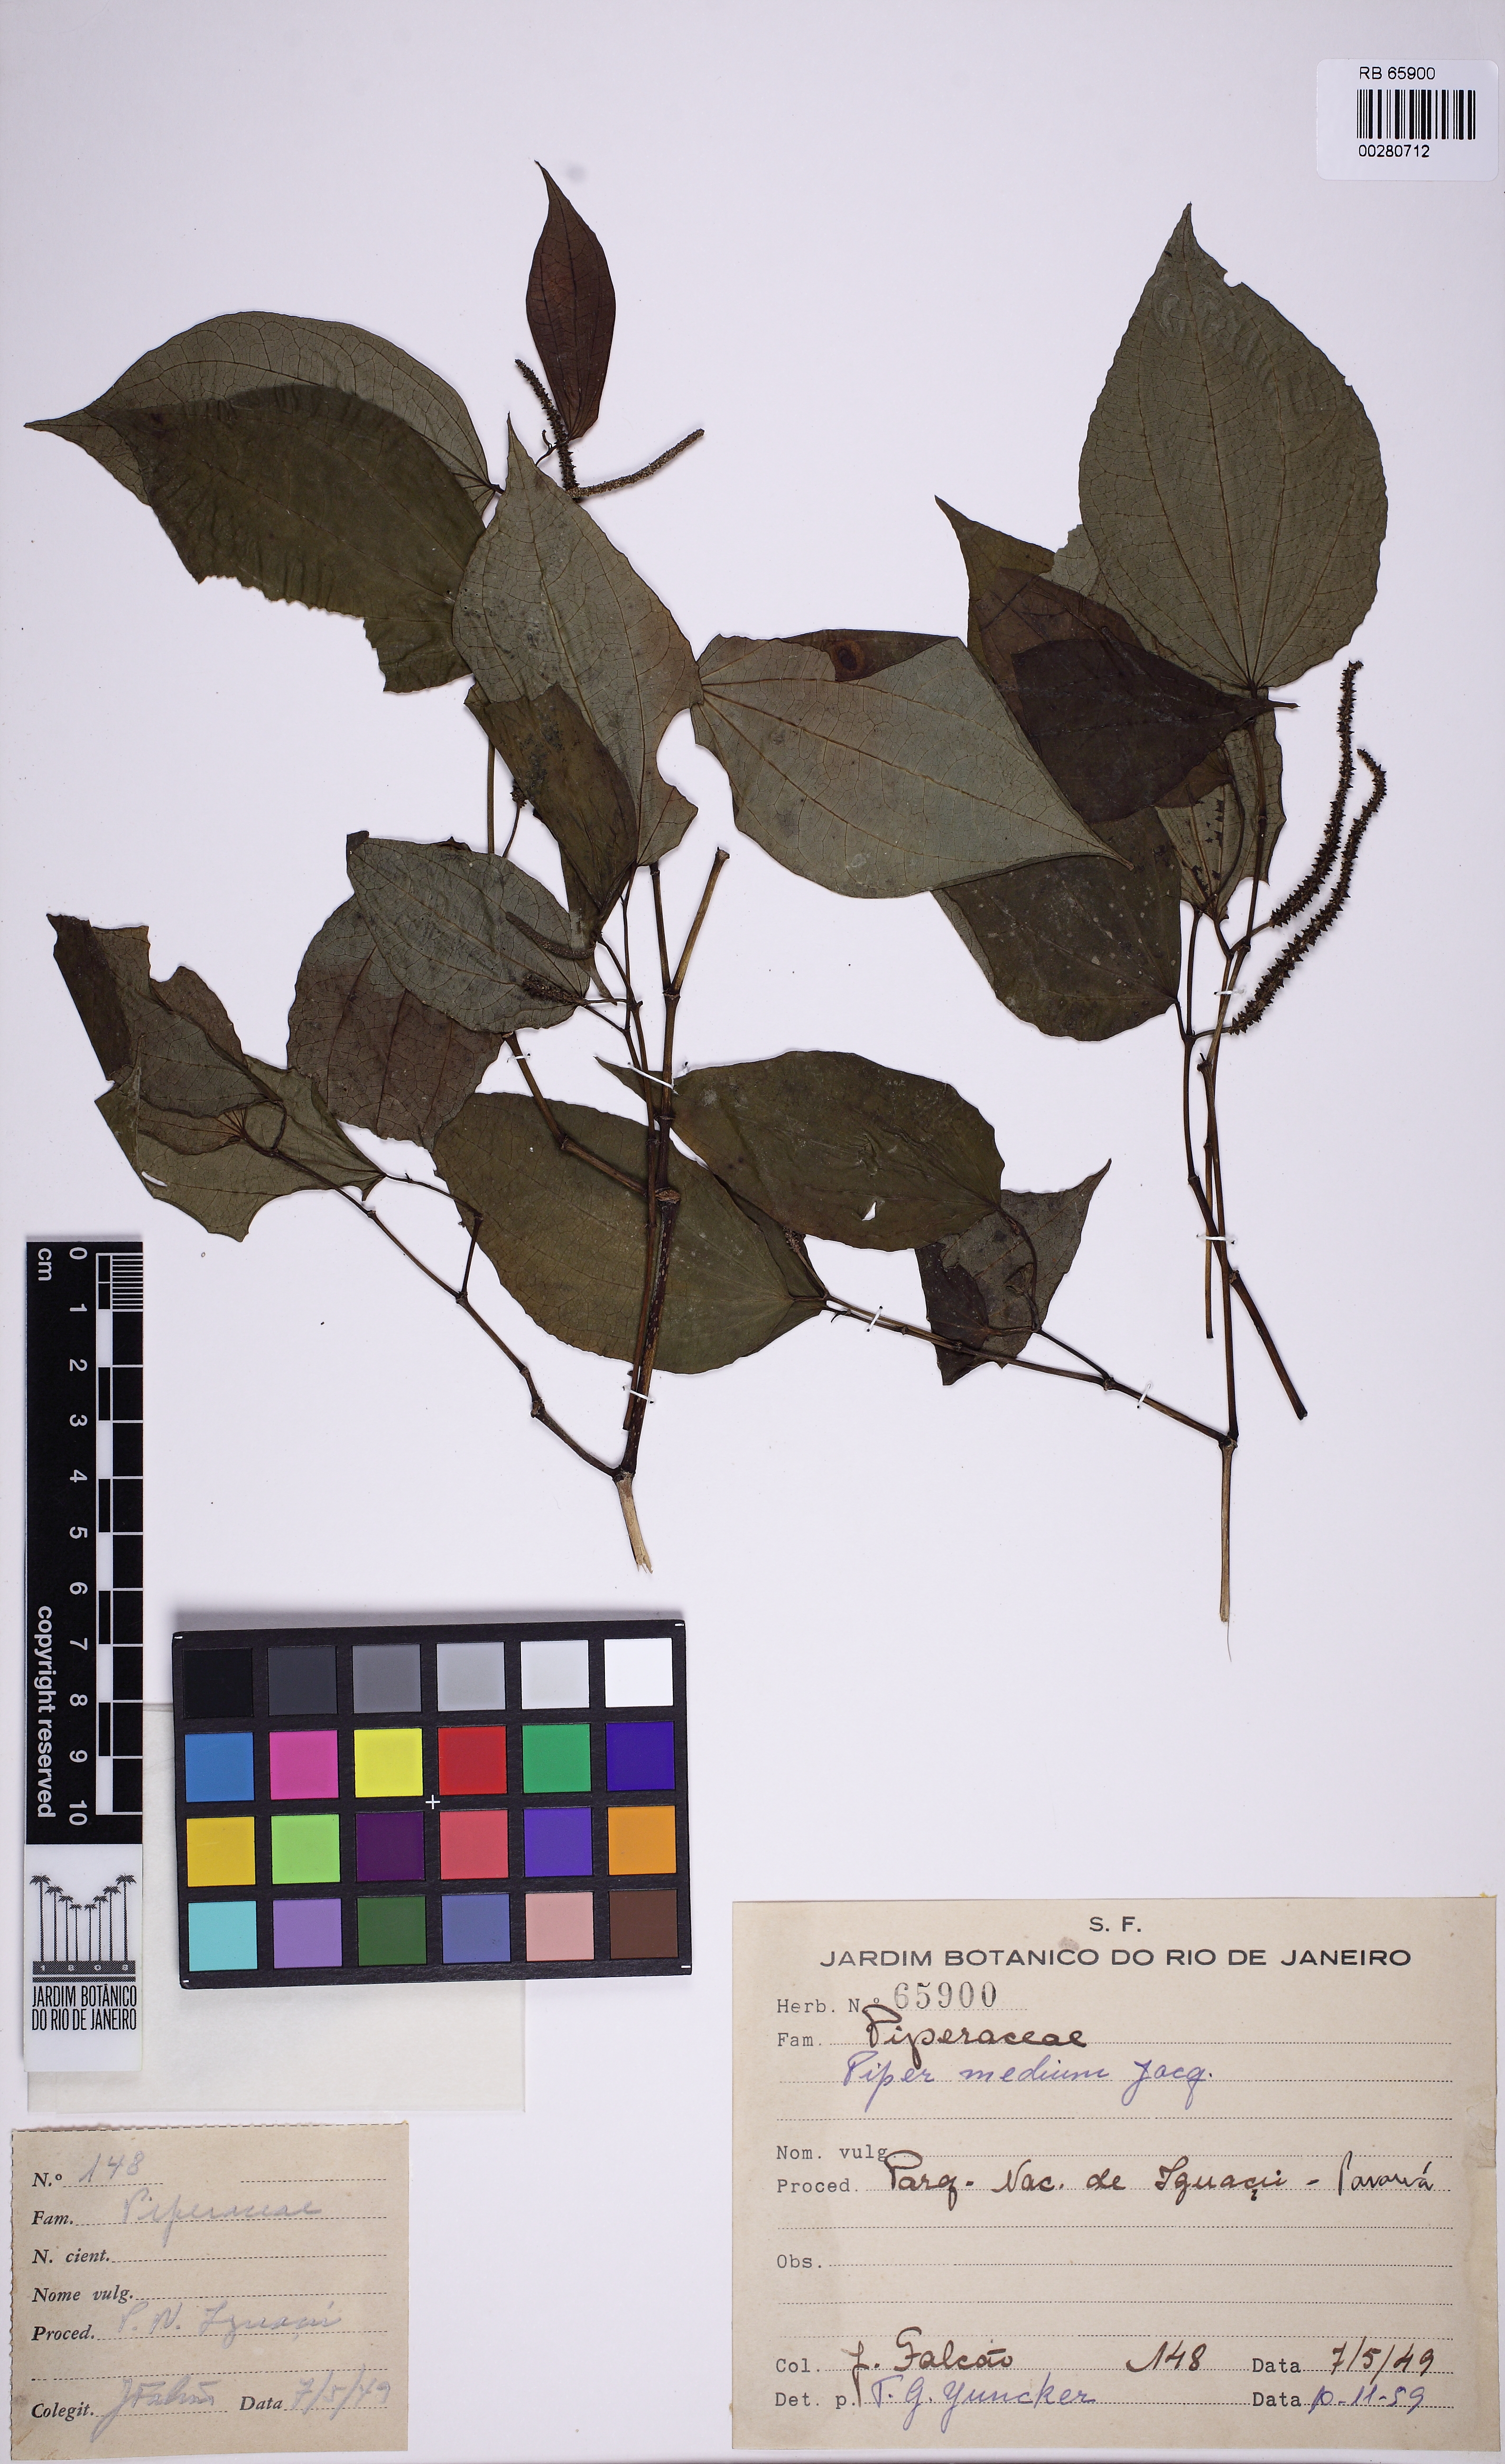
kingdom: Plantae
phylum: Tracheophyta
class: Magnoliopsida
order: Piperales
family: Piperaceae
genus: Piper
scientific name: Piper amalago
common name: Pepper-elder
